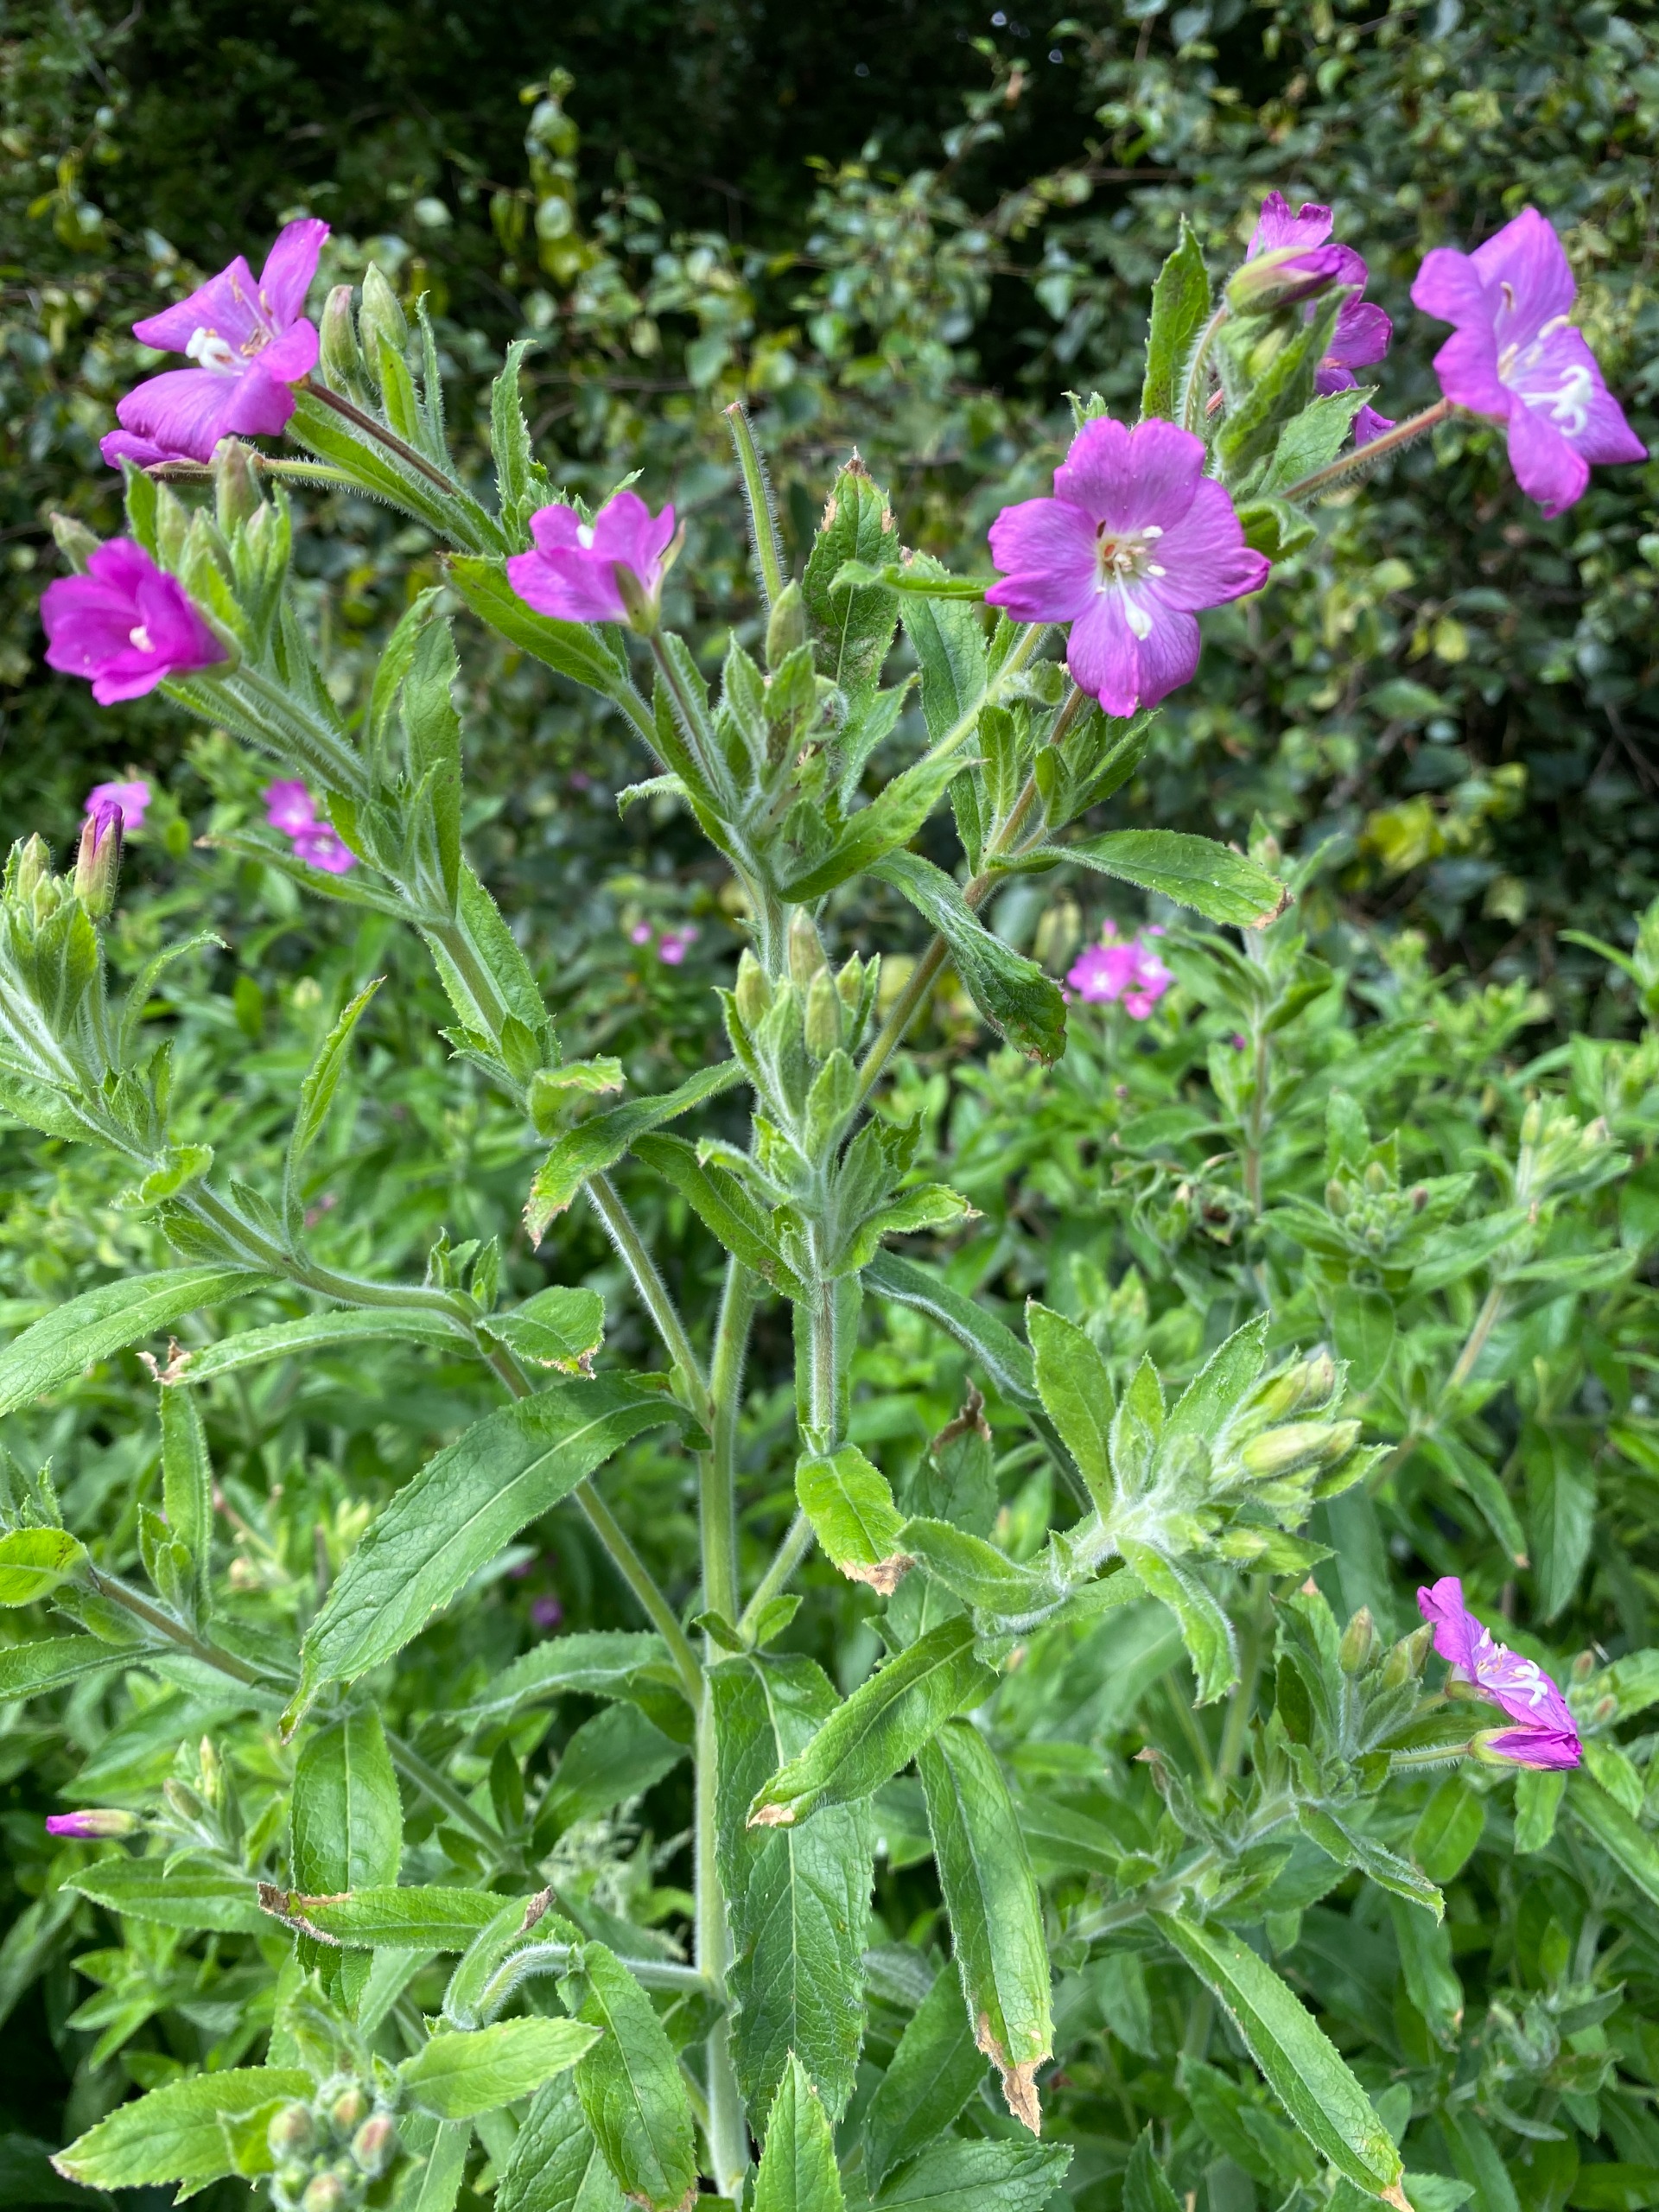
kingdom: Plantae
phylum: Tracheophyta
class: Magnoliopsida
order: Myrtales
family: Onagraceae
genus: Epilobium
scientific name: Epilobium hirsutum
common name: Lådden dueurt
